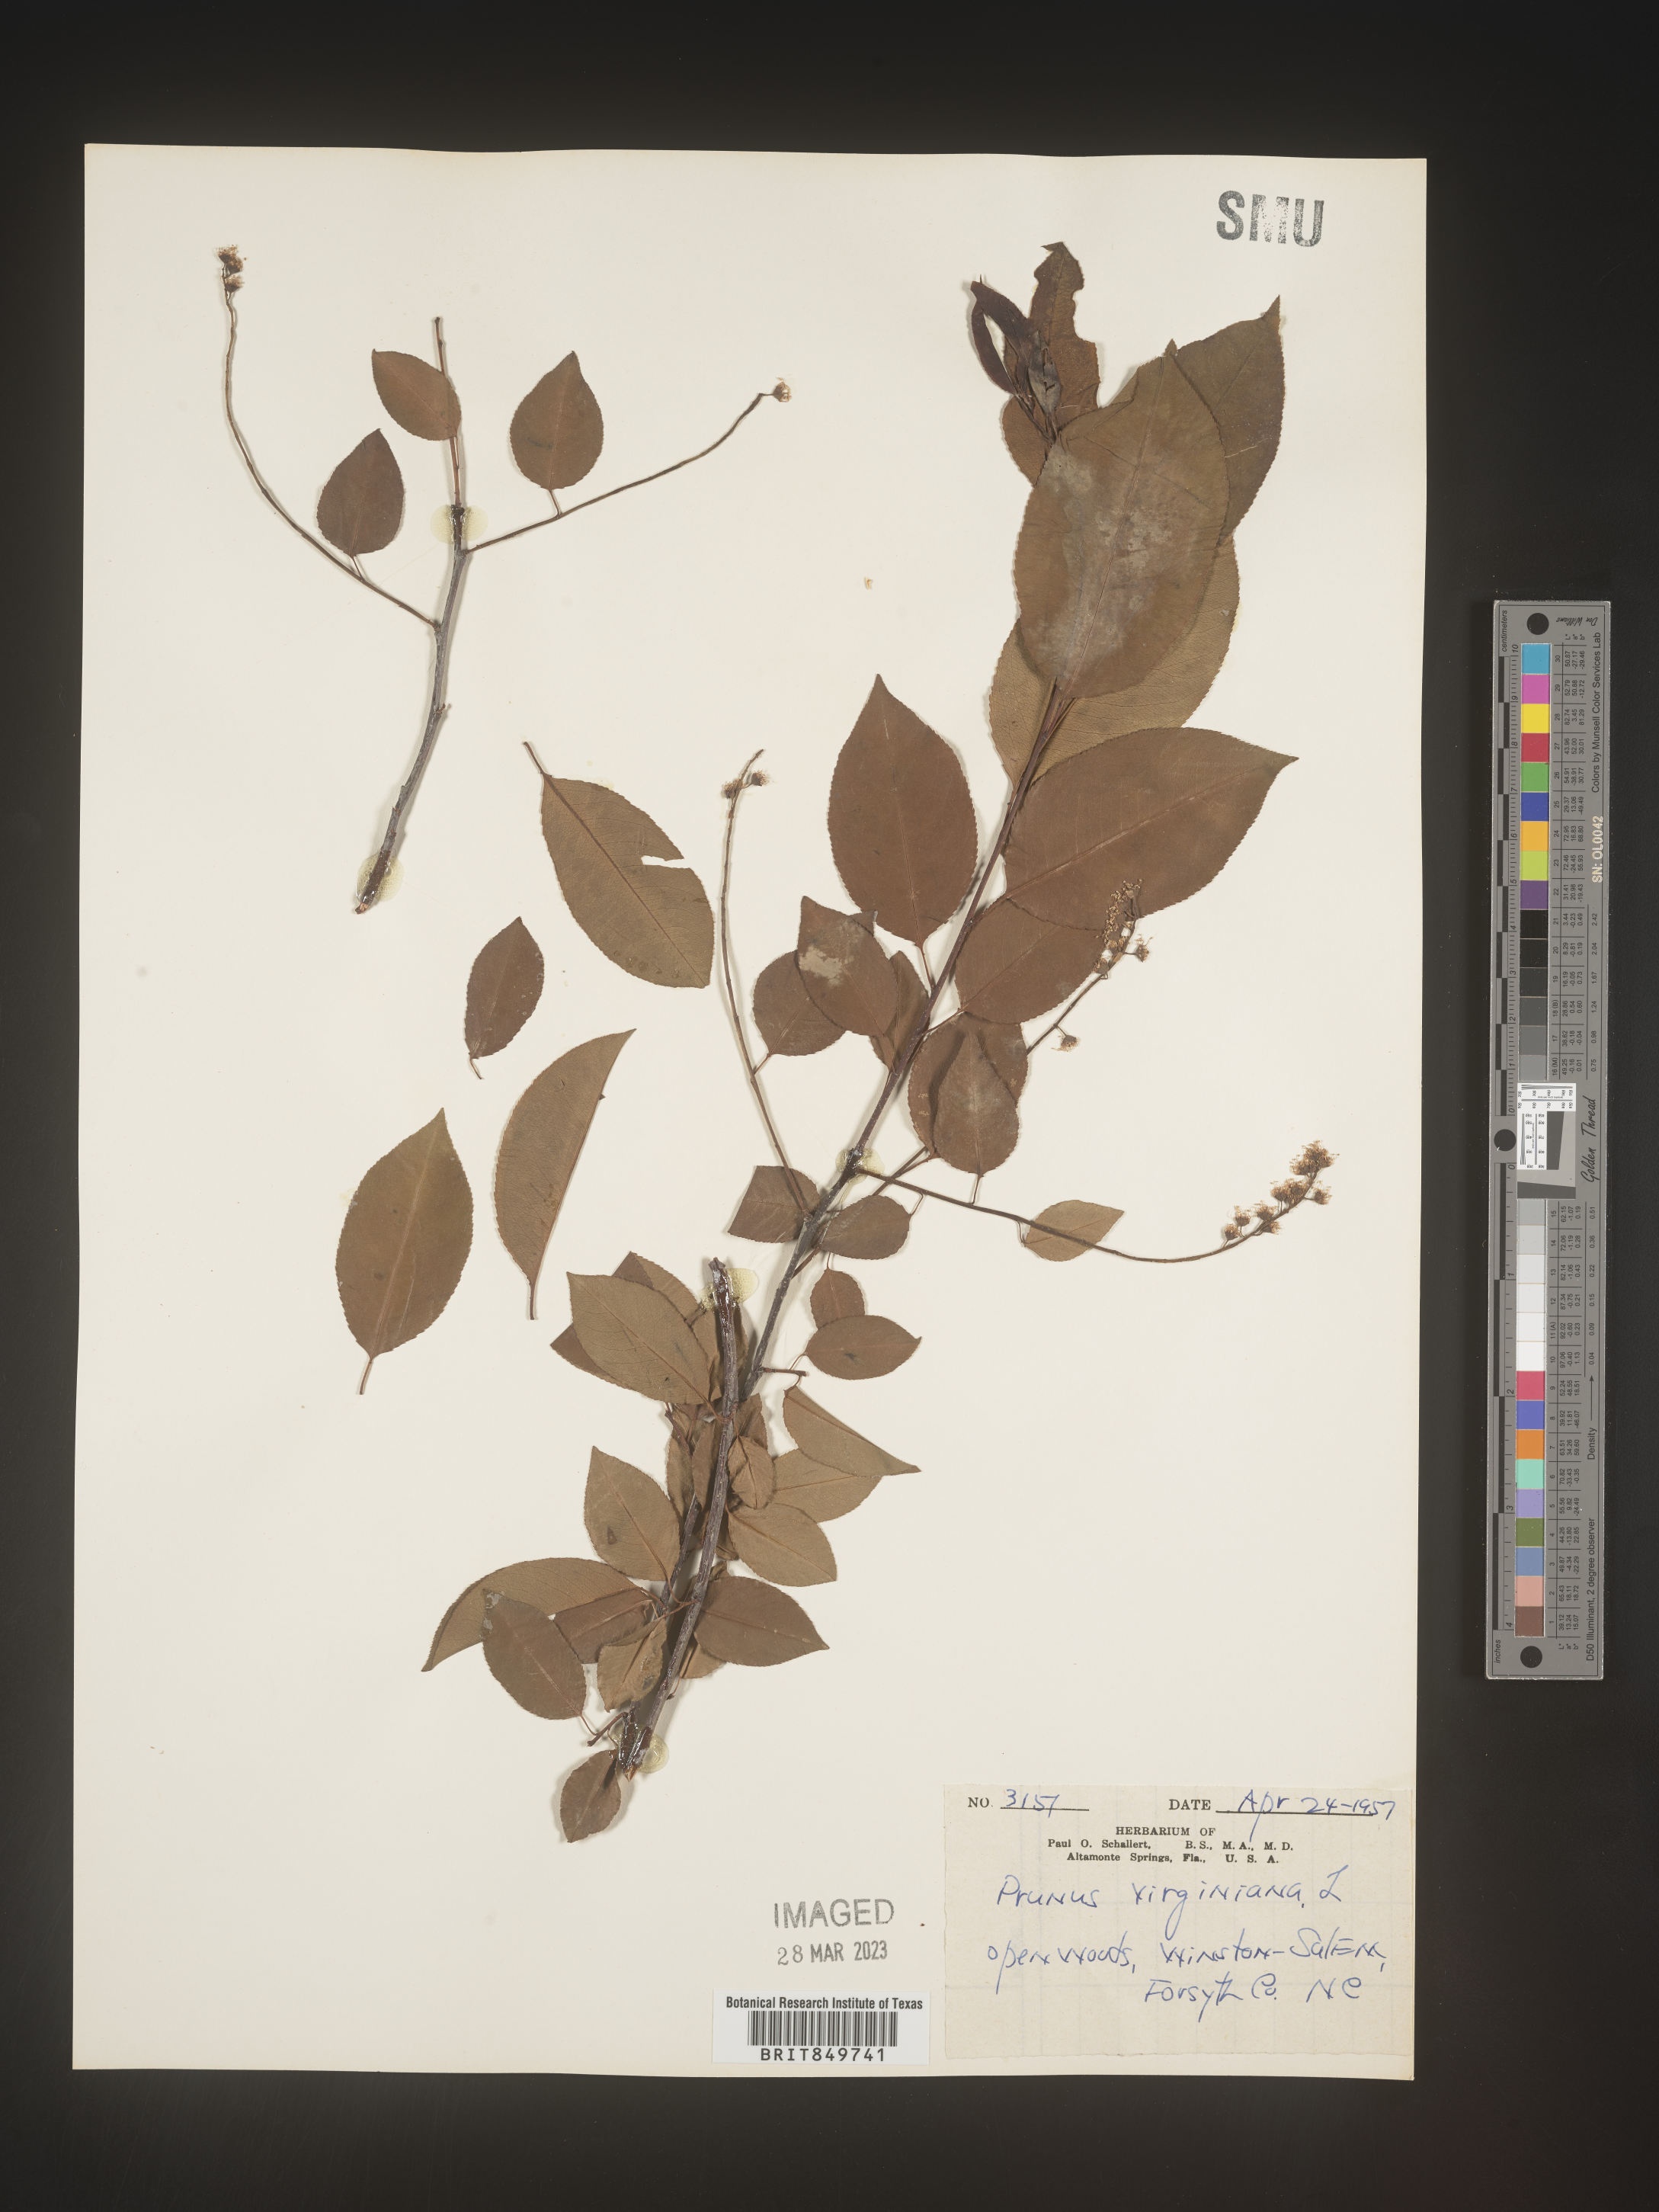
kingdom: Plantae
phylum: Tracheophyta
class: Magnoliopsida
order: Rosales
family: Rosaceae
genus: Prunus
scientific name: Prunus virginiana
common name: Chokecherry
